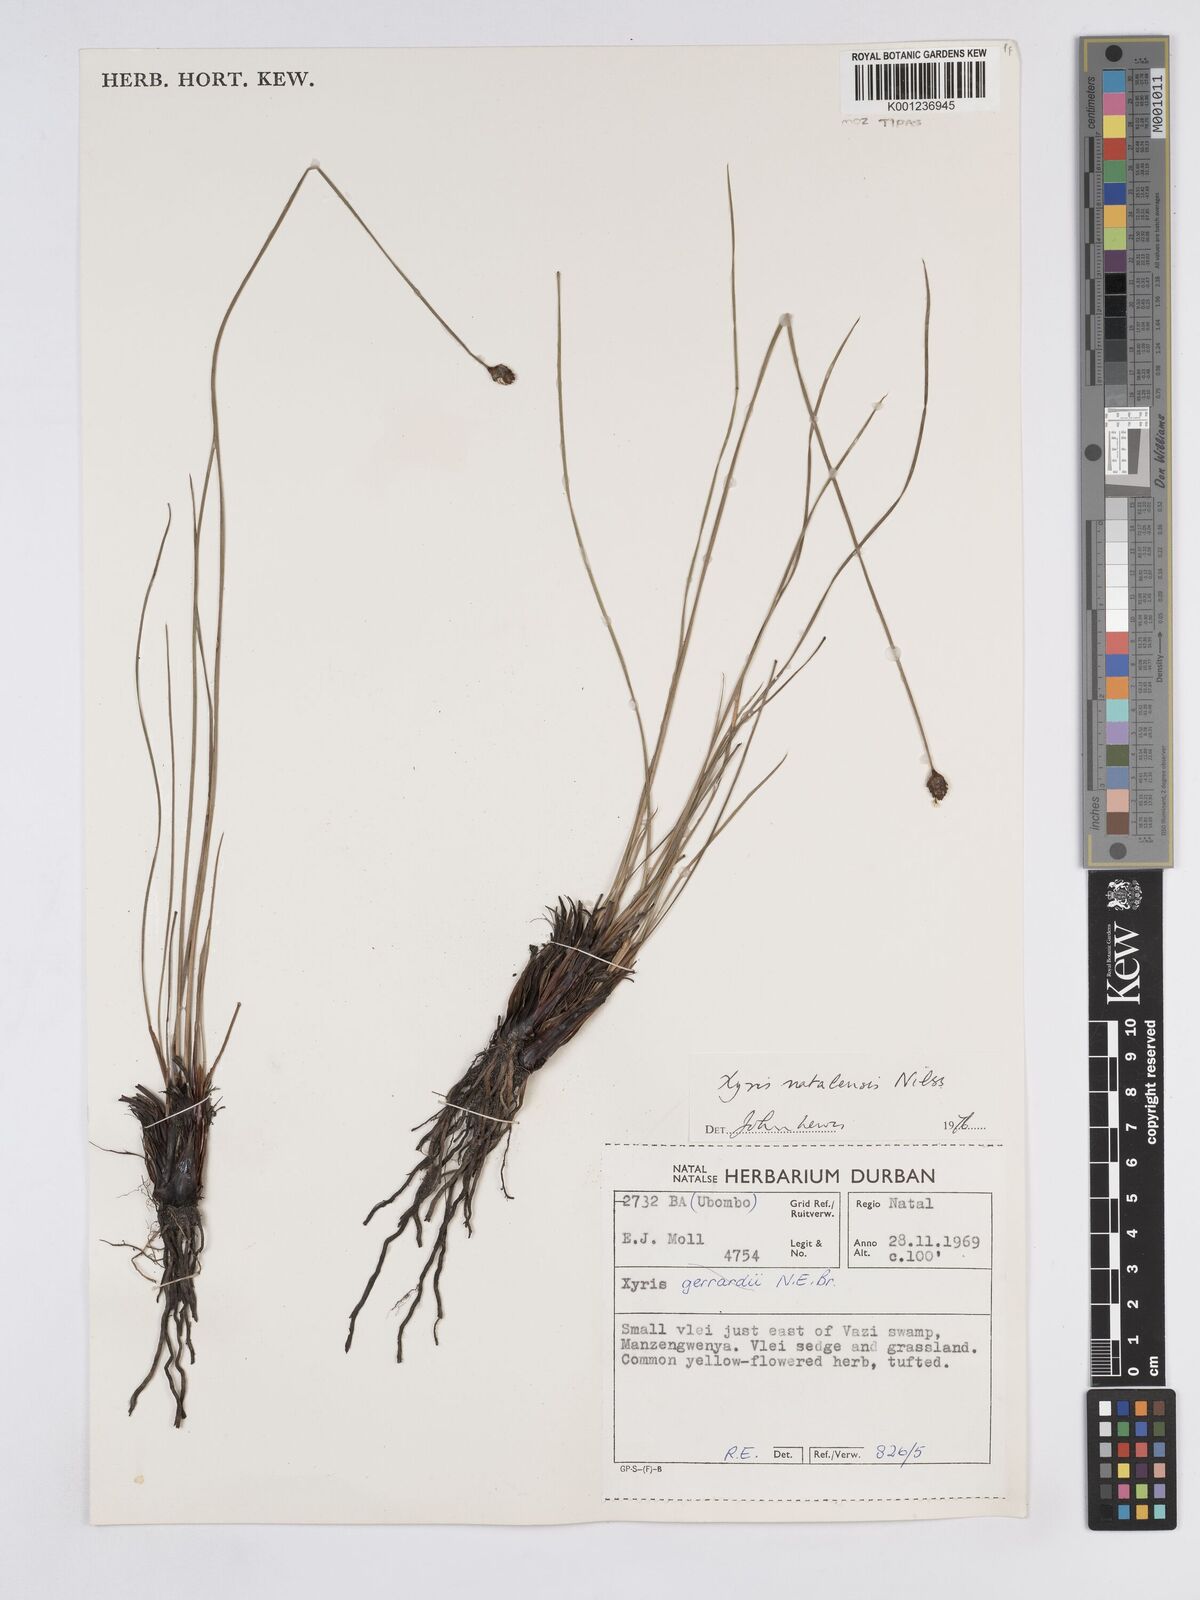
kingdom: Plantae
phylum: Tracheophyta
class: Liliopsida
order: Poales
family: Xyridaceae
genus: Xyris
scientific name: Xyris natalensis
